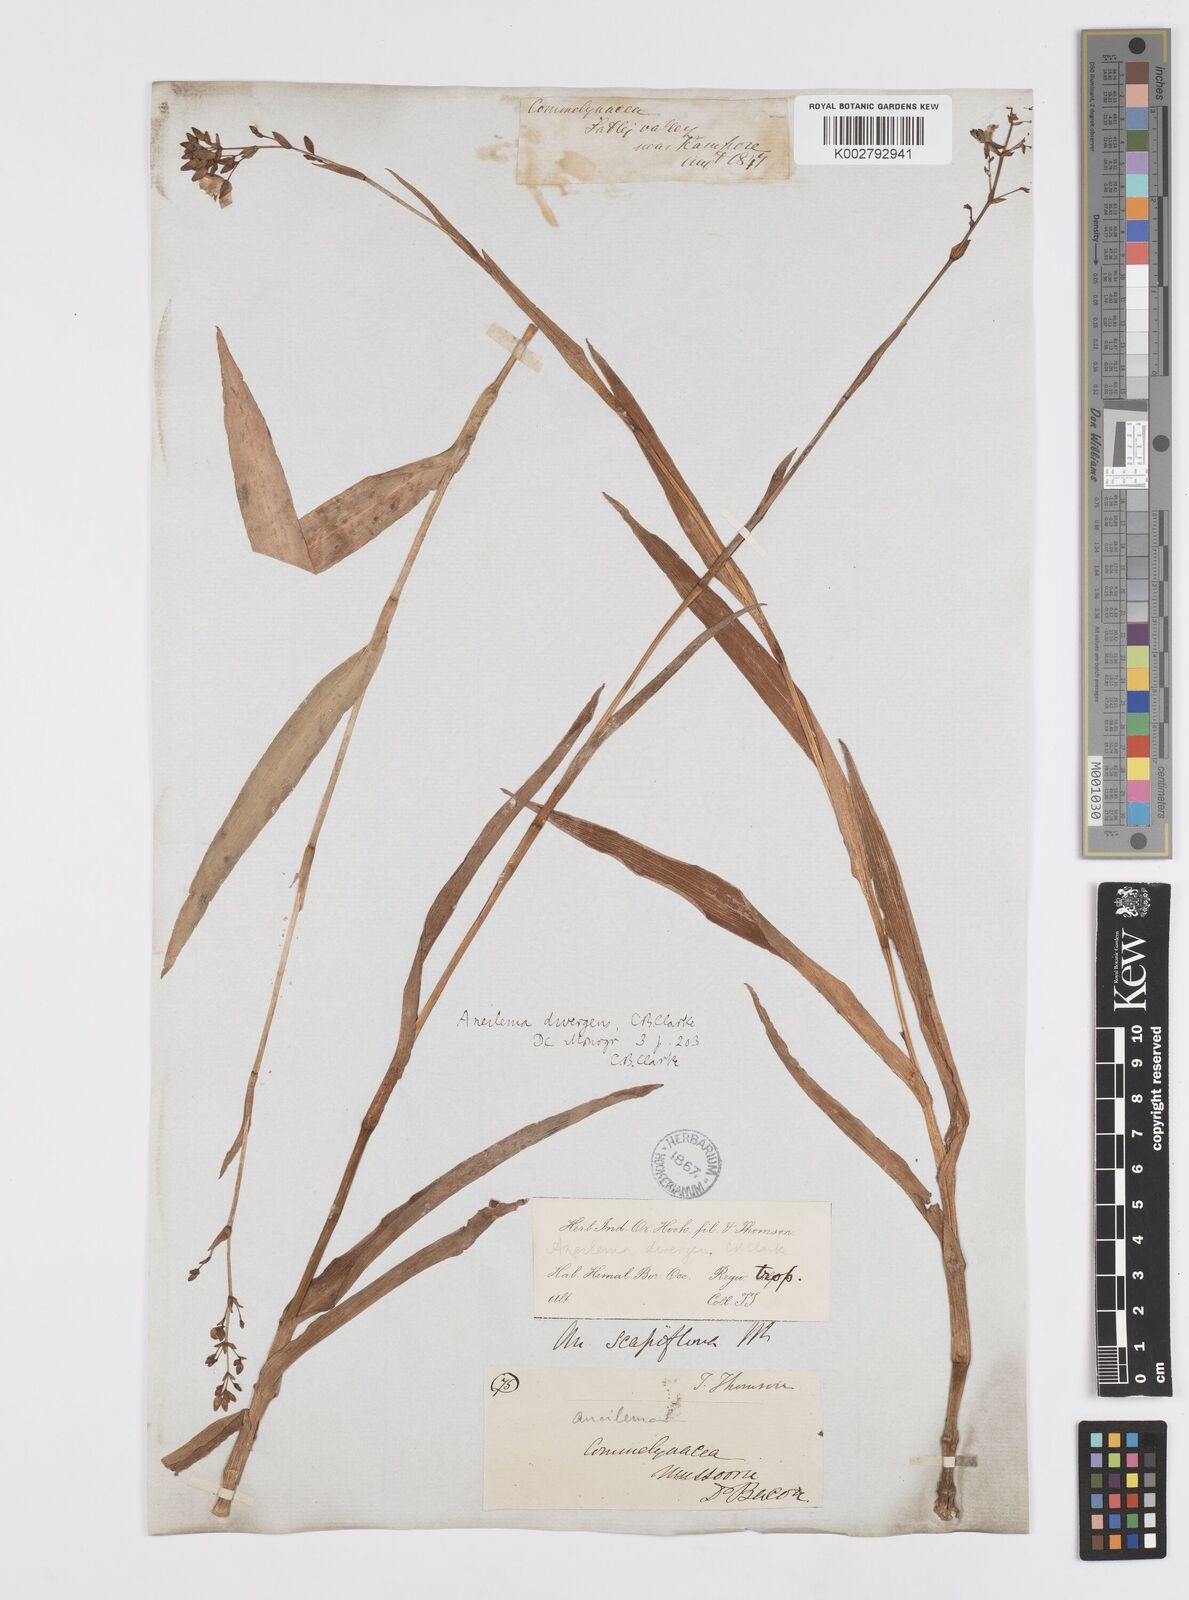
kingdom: Plantae
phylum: Tracheophyta
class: Liliopsida
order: Commelinales
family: Commelinaceae
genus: Murdannia
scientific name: Murdannia divergens
